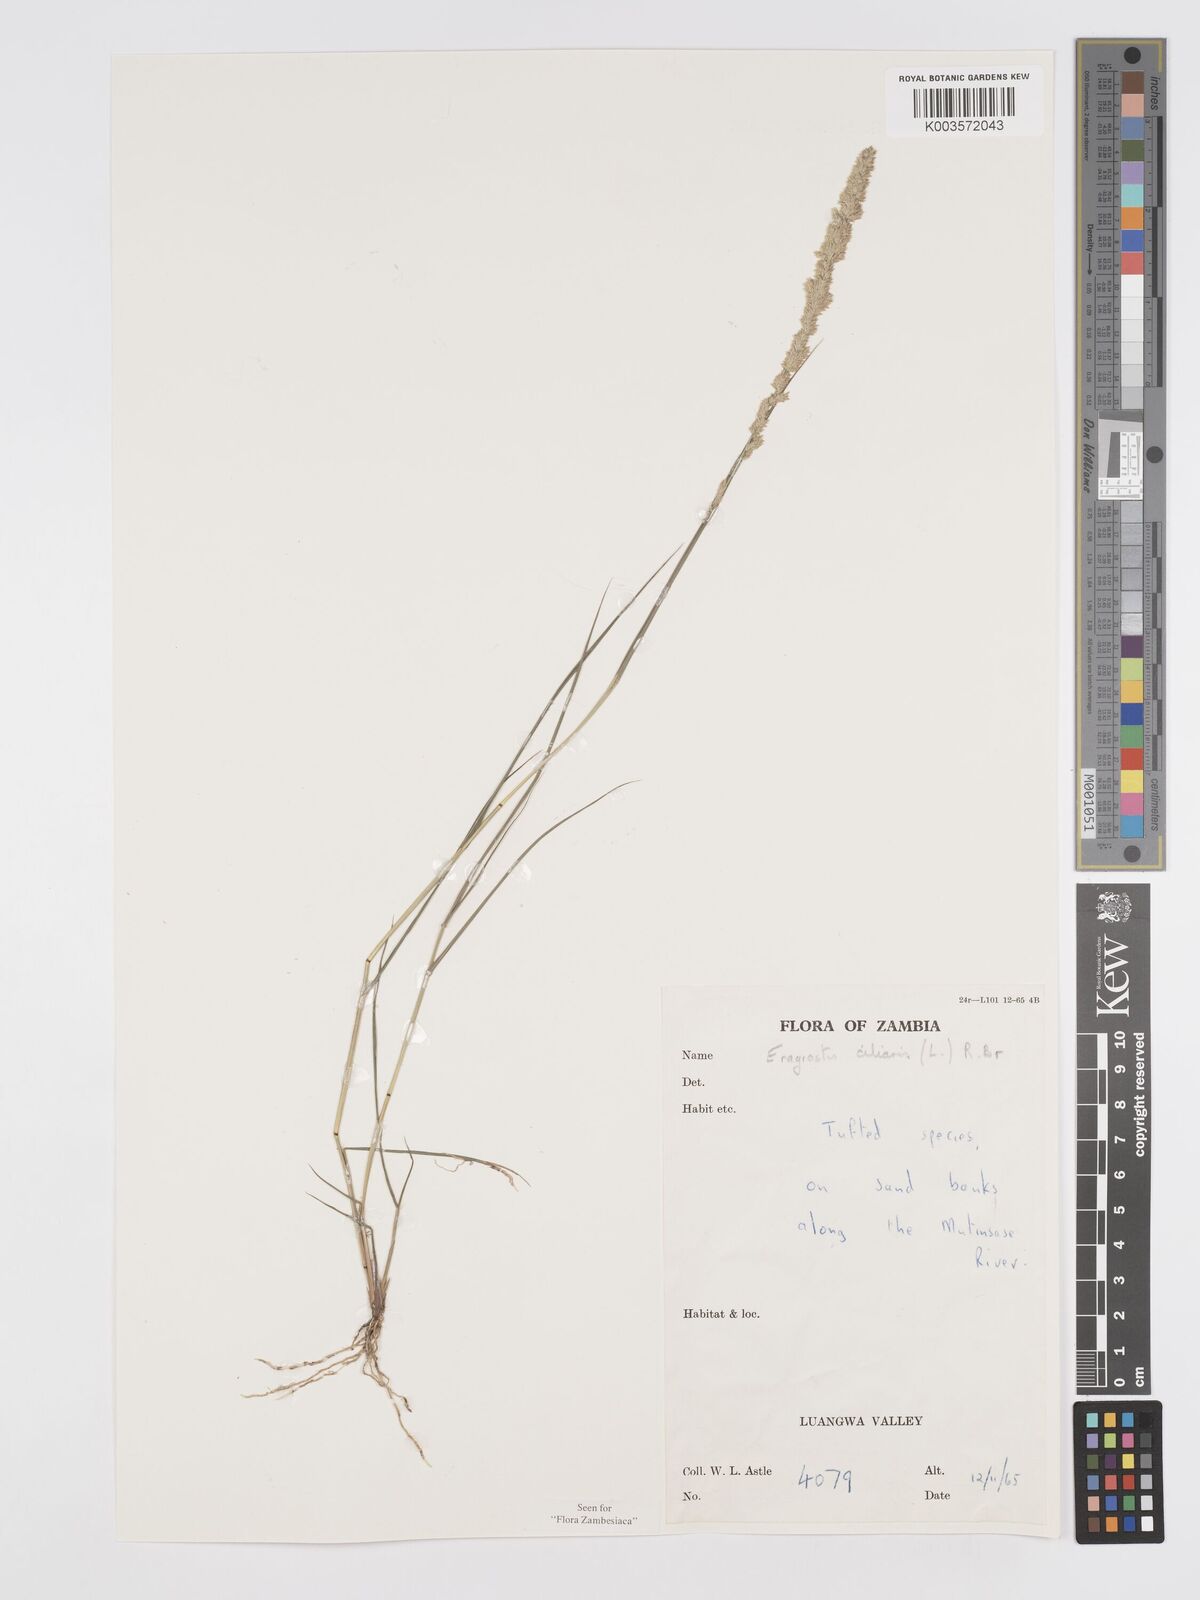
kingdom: Plantae
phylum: Tracheophyta
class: Liliopsida
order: Poales
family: Poaceae
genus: Eragrostis
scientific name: Eragrostis ciliaris
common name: Gophertail lovegrass
